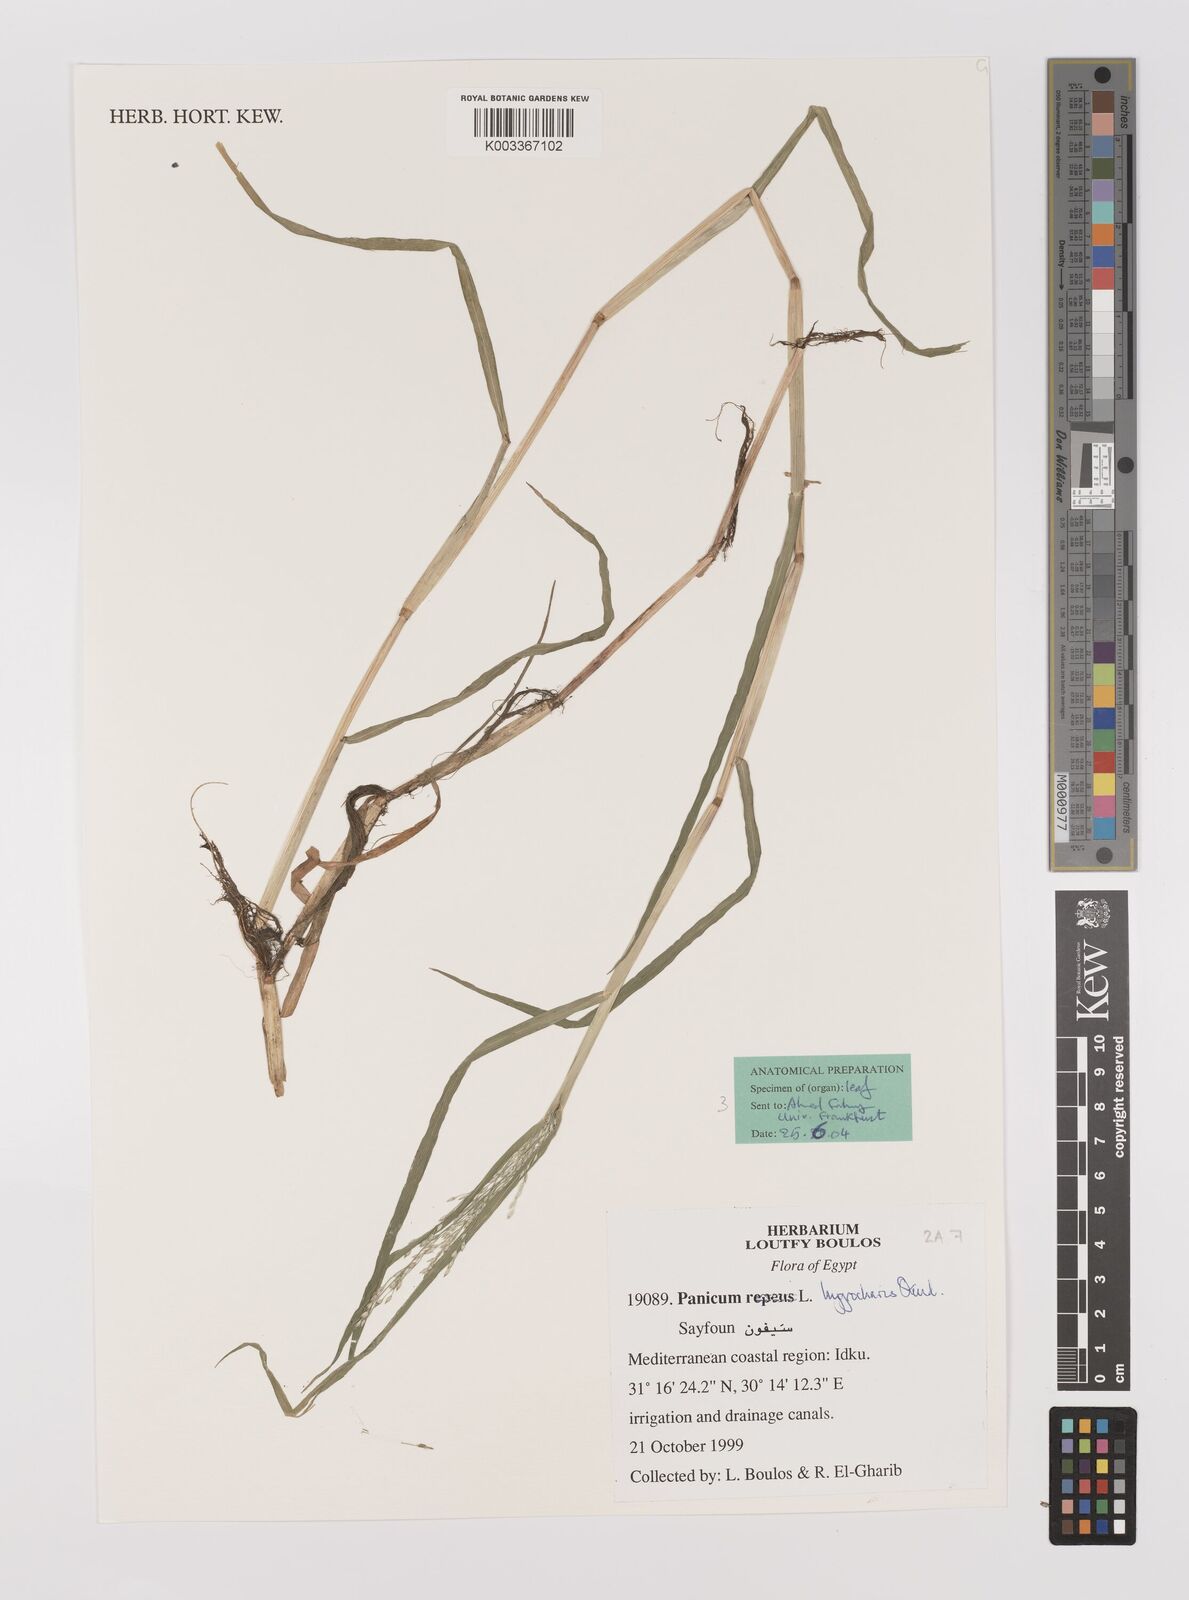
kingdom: Plantae
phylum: Tracheophyta
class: Liliopsida
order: Poales
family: Poaceae
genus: Panicum
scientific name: Panicum hygrocharis
